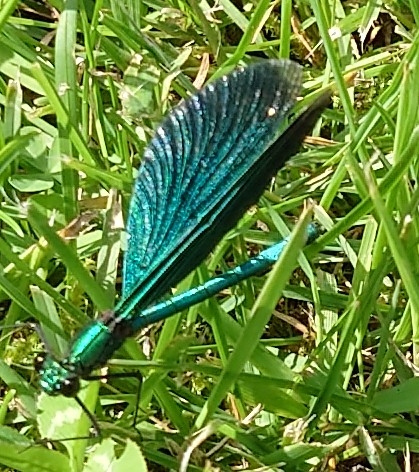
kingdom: Animalia
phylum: Arthropoda
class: Insecta
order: Odonata
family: Calopterygidae
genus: Calopteryx
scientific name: Calopteryx virgo
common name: Blåvinget pragtvandnymfe
